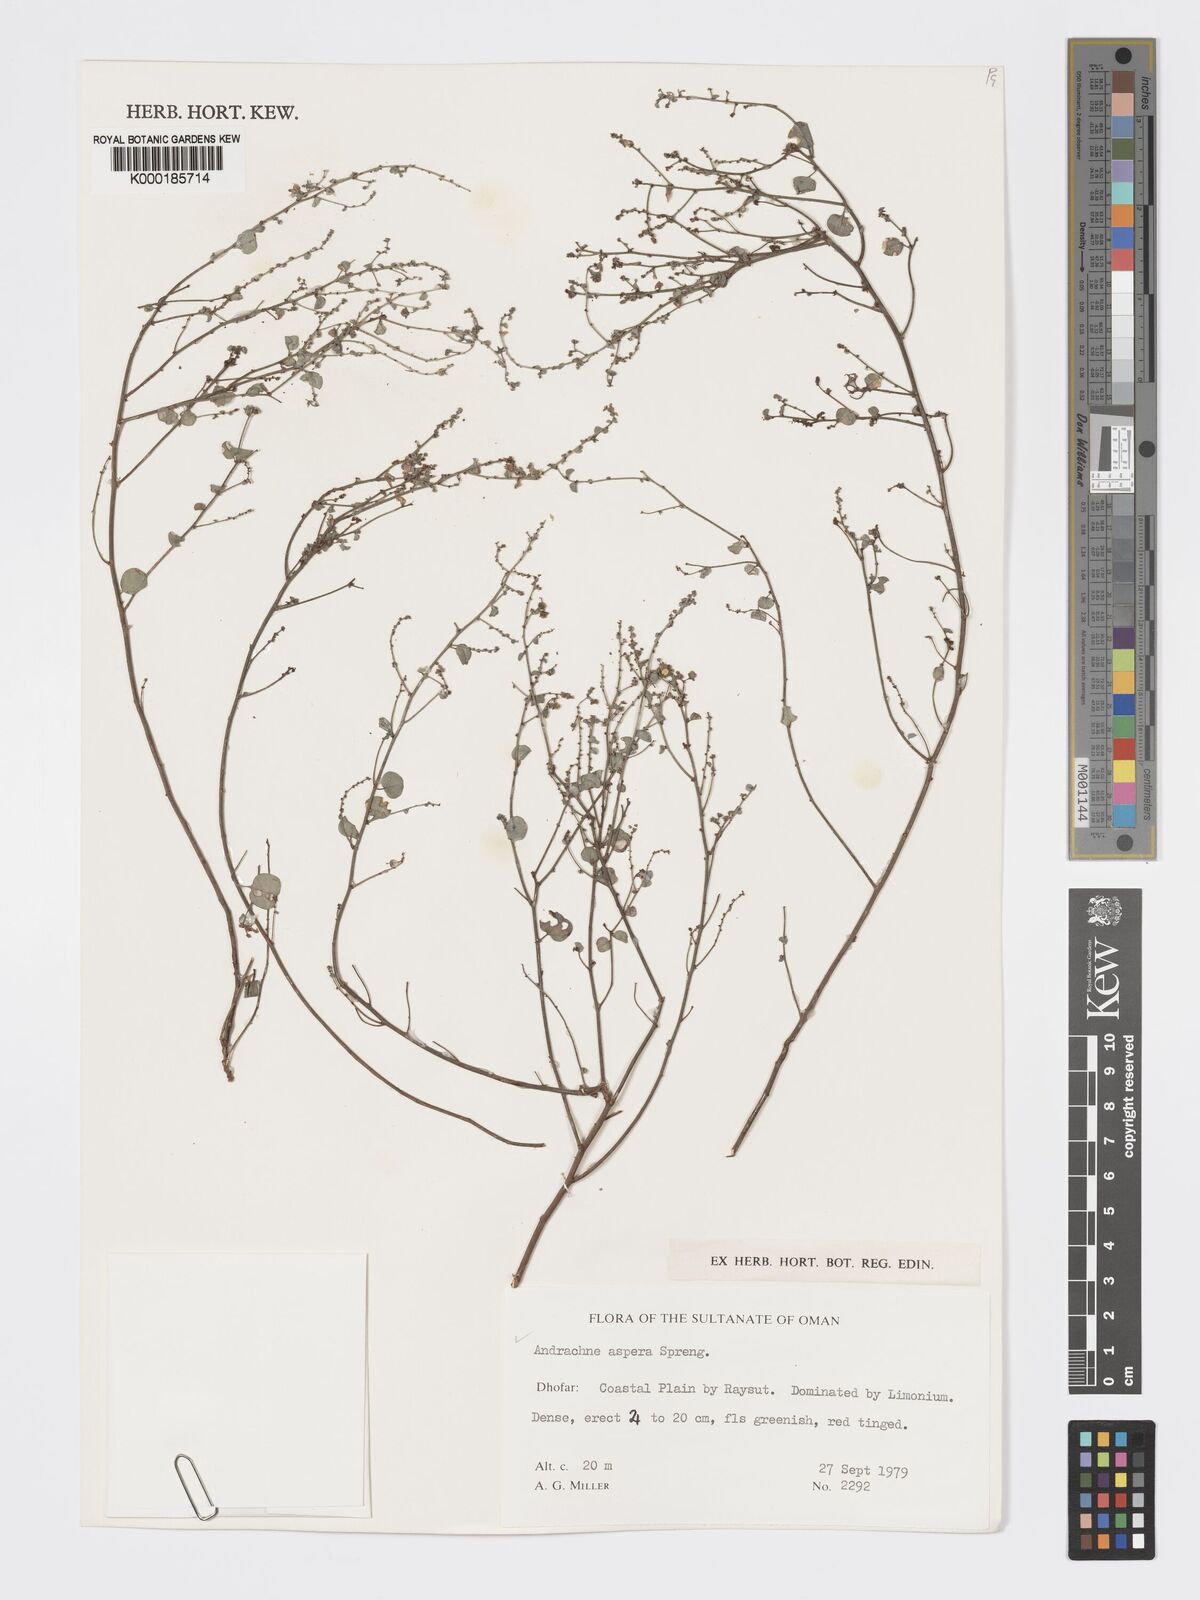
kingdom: Plantae
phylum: Tracheophyta
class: Magnoliopsida
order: Malpighiales
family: Phyllanthaceae
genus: Andrachne
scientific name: Andrachne aspera
